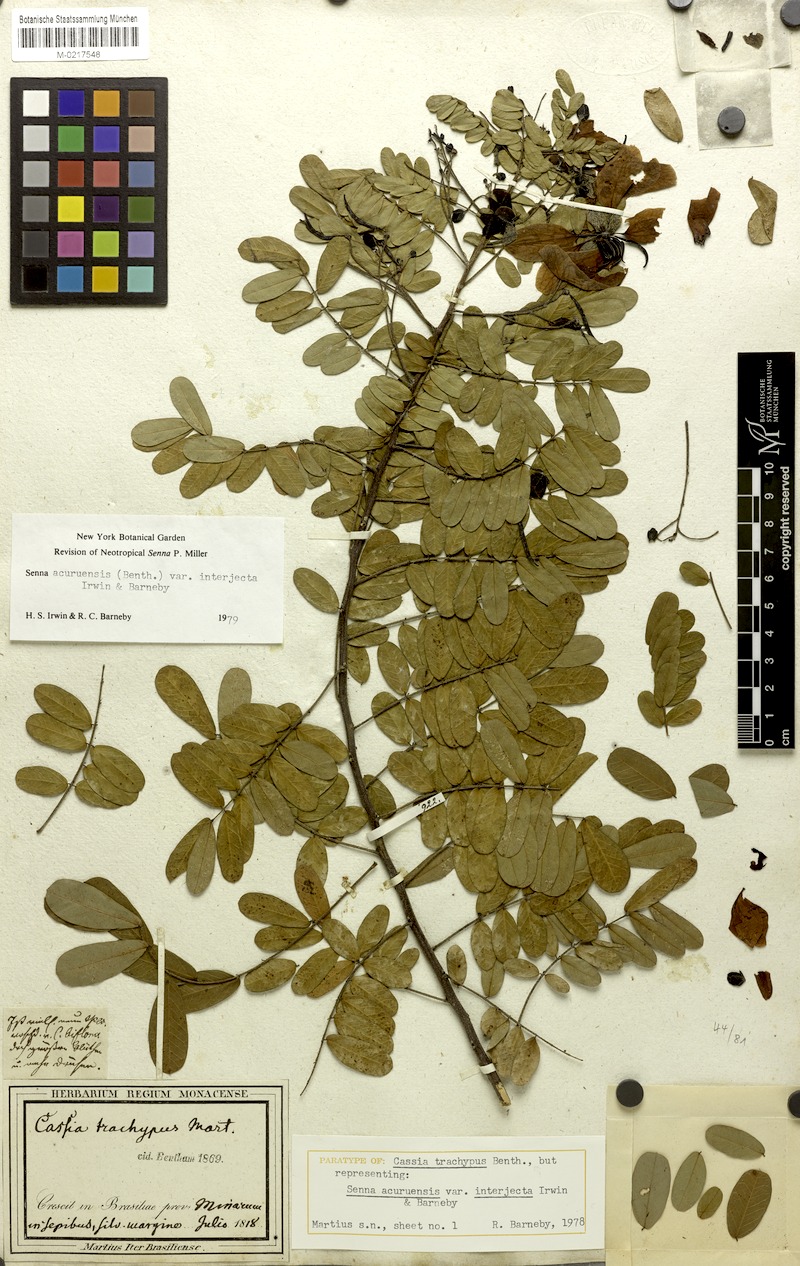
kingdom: Plantae
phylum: Tracheophyta
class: Magnoliopsida
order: Fabales
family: Fabaceae
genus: Senna
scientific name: Senna acuruensis
